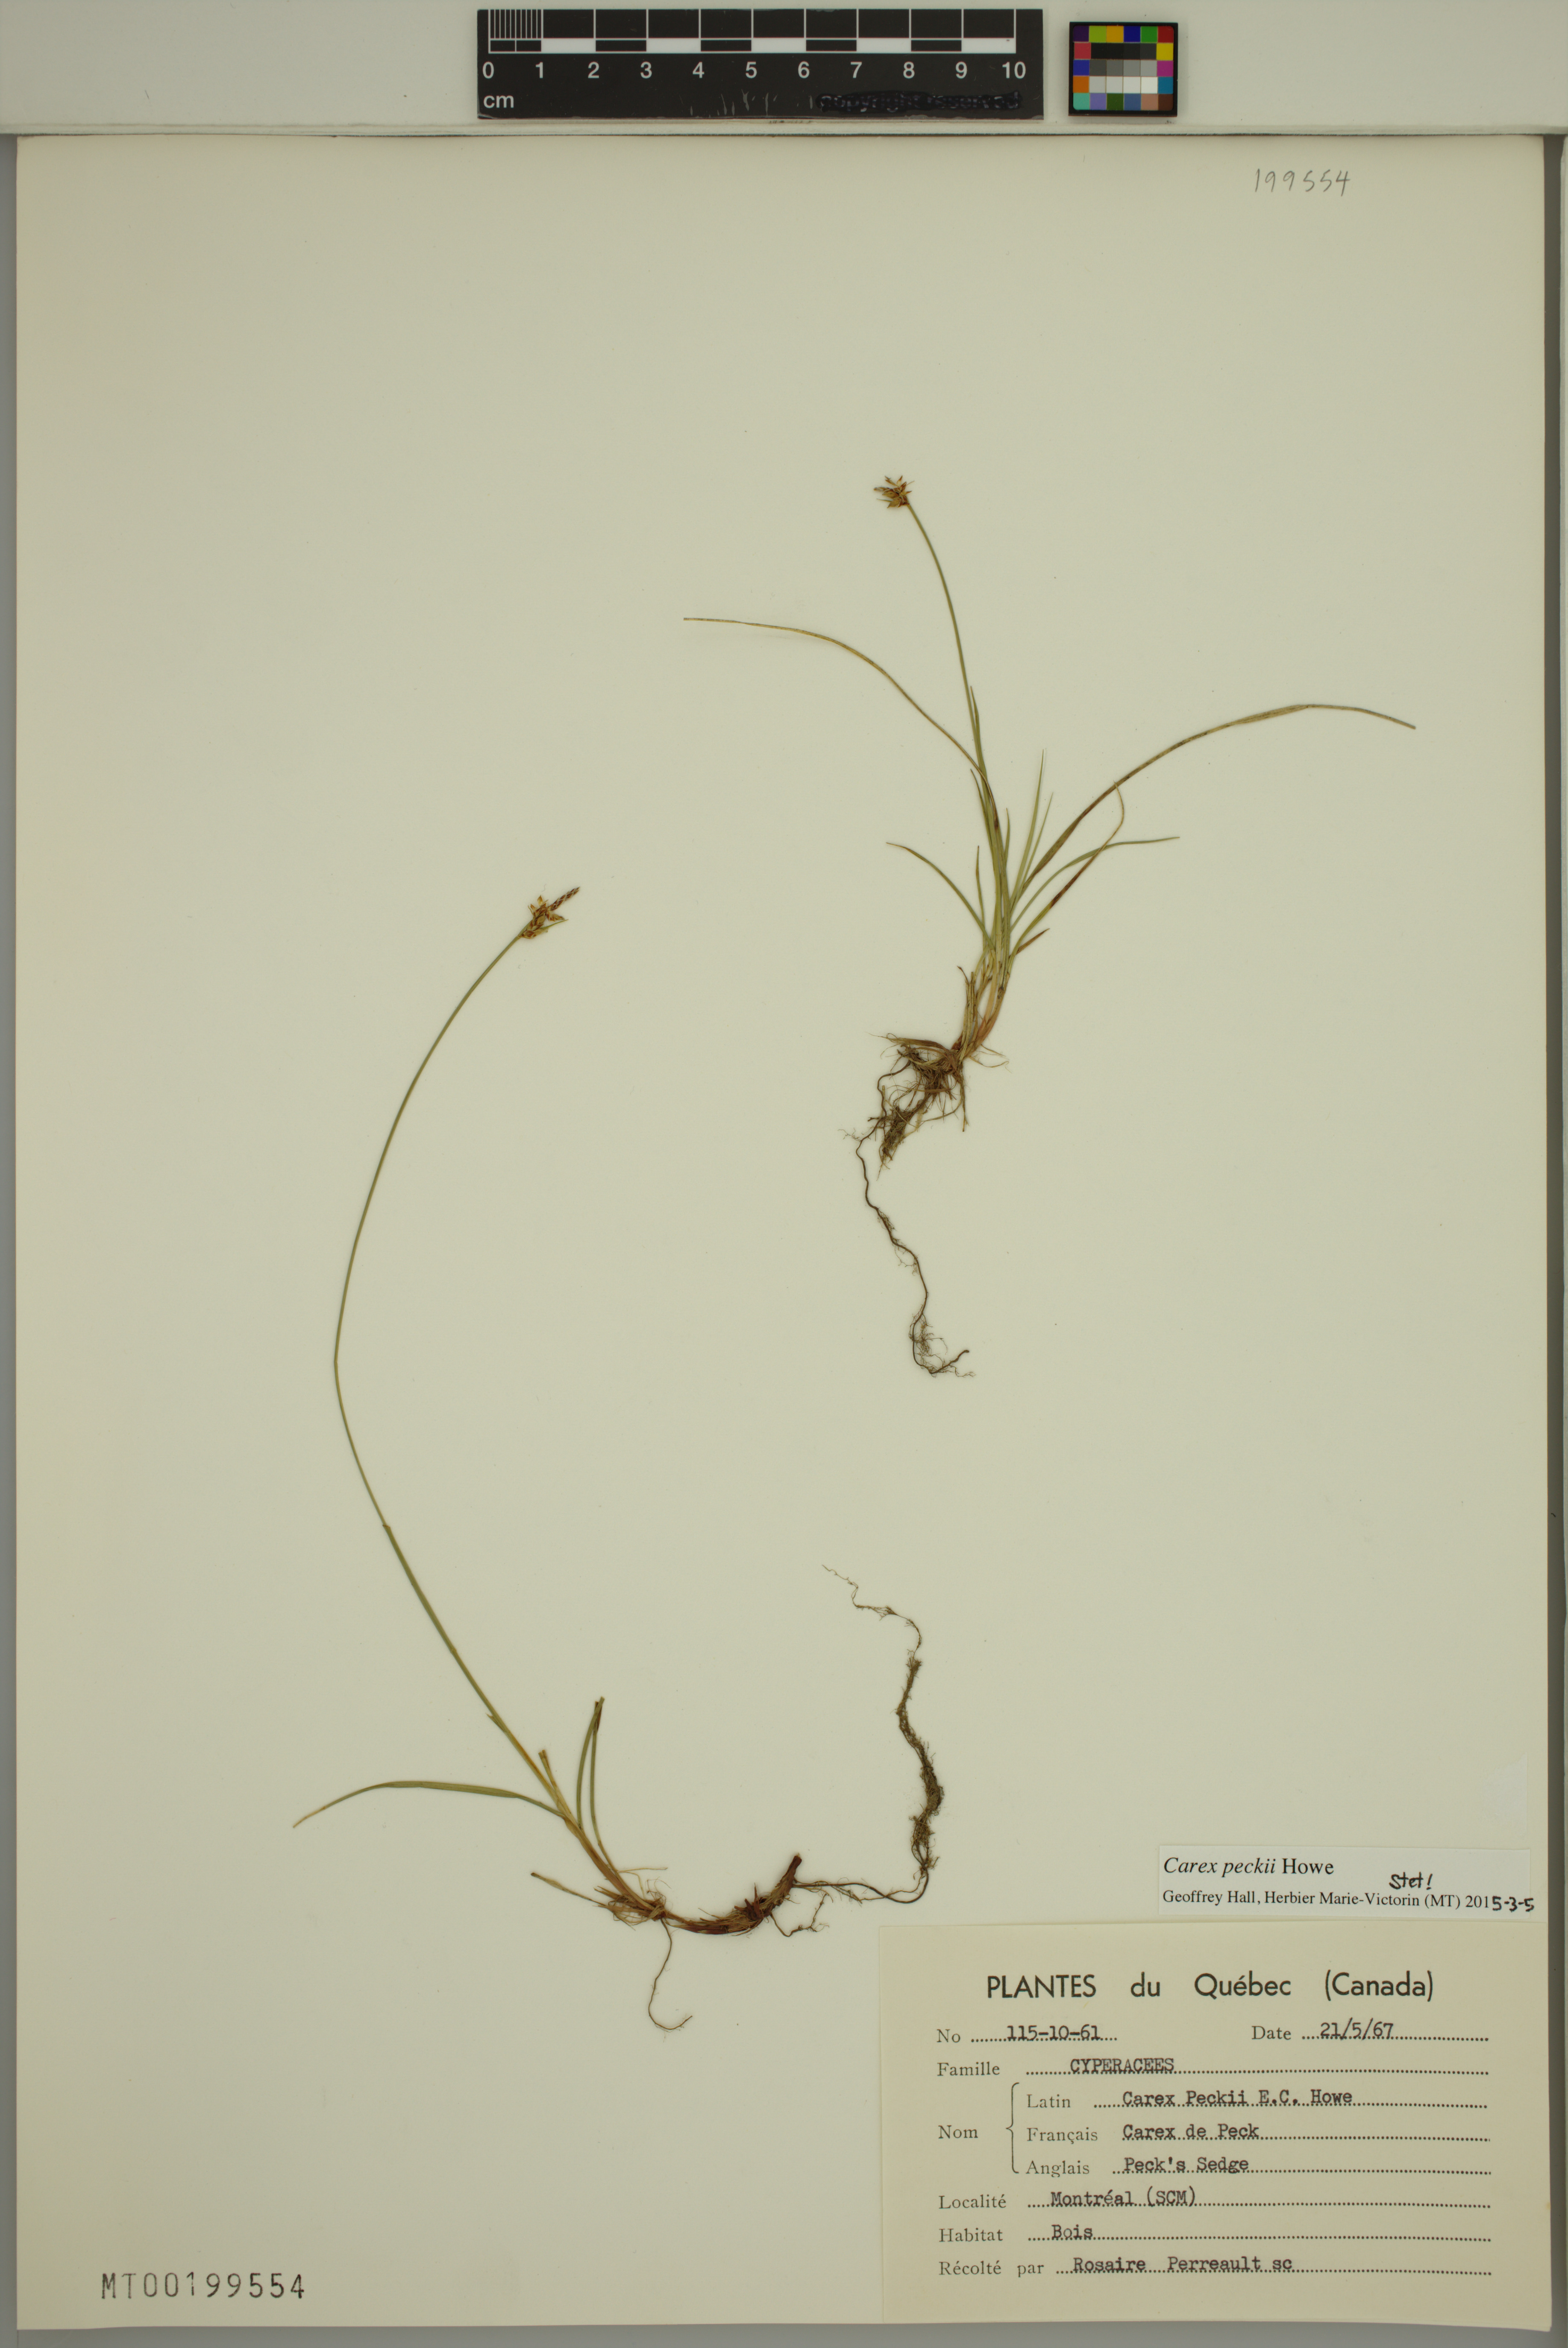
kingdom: Plantae
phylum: Tracheophyta
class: Liliopsida
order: Poales
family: Cyperaceae
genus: Carex
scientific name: Carex peckii
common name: Peck's oak sedge
